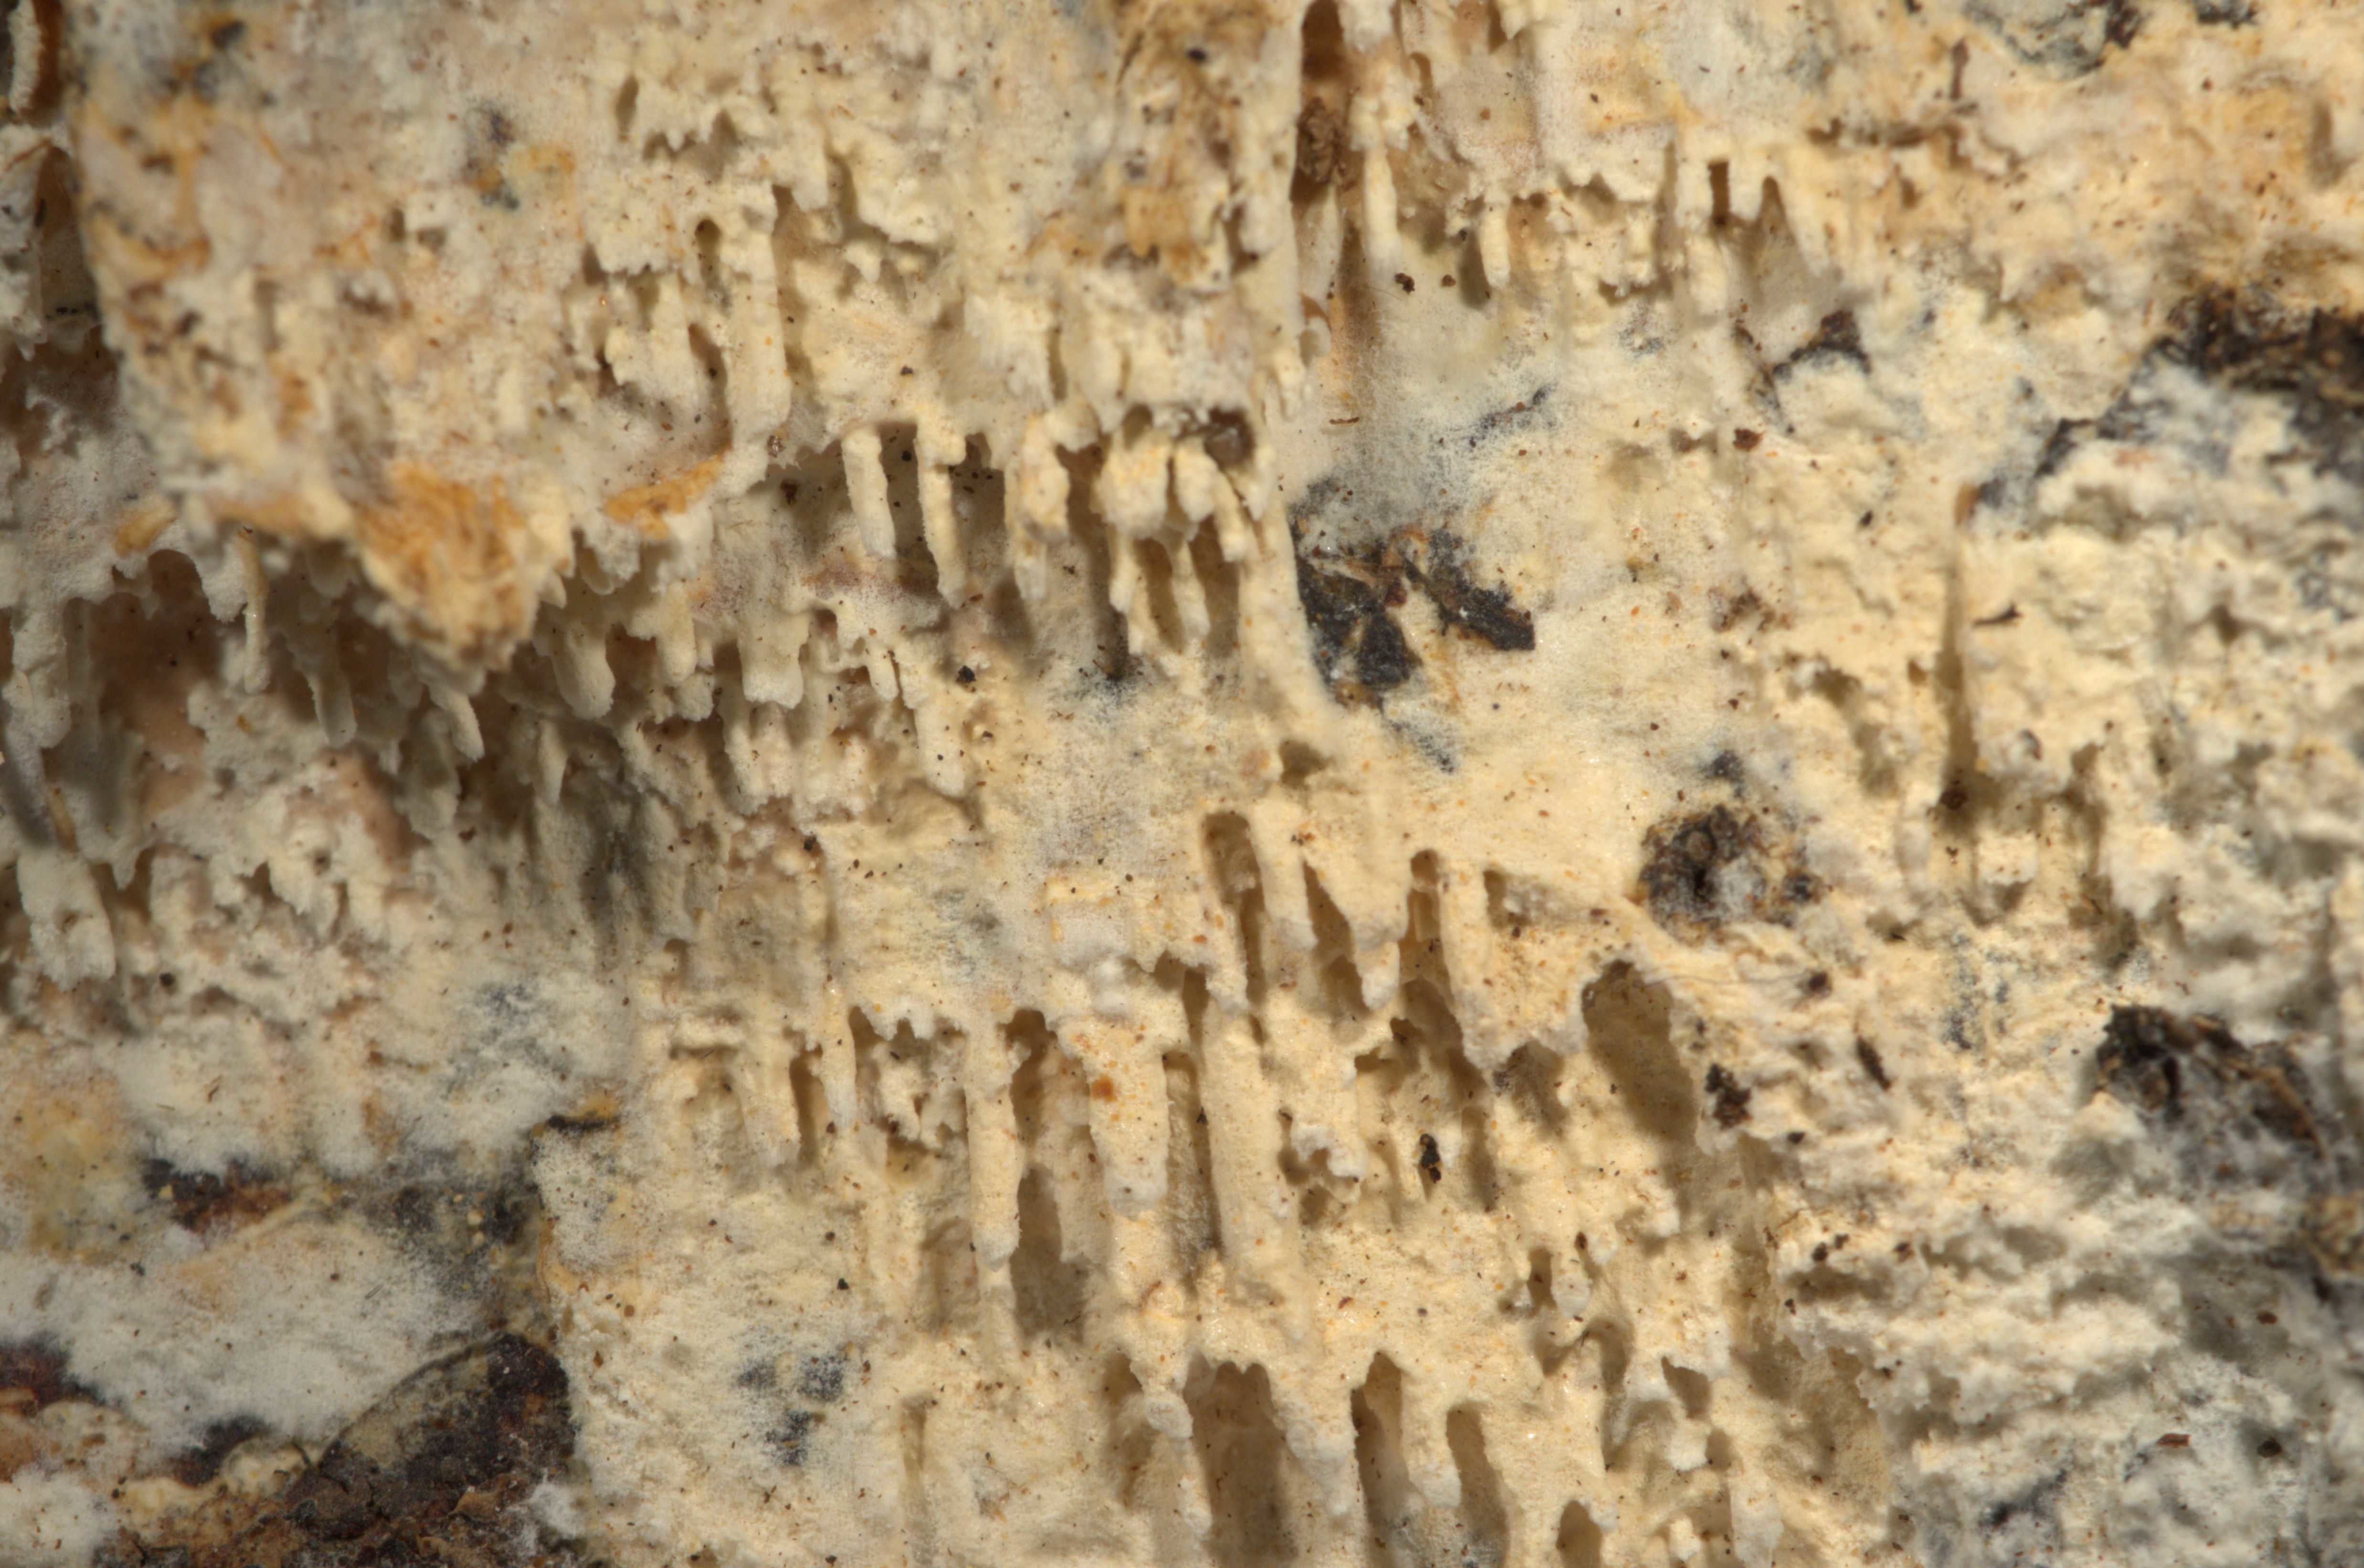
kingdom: Fungi
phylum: Basidiomycota
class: Agaricomycetes
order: Hymenochaetales
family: Schizoporaceae
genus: Xylodon
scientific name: Xylodon radula
